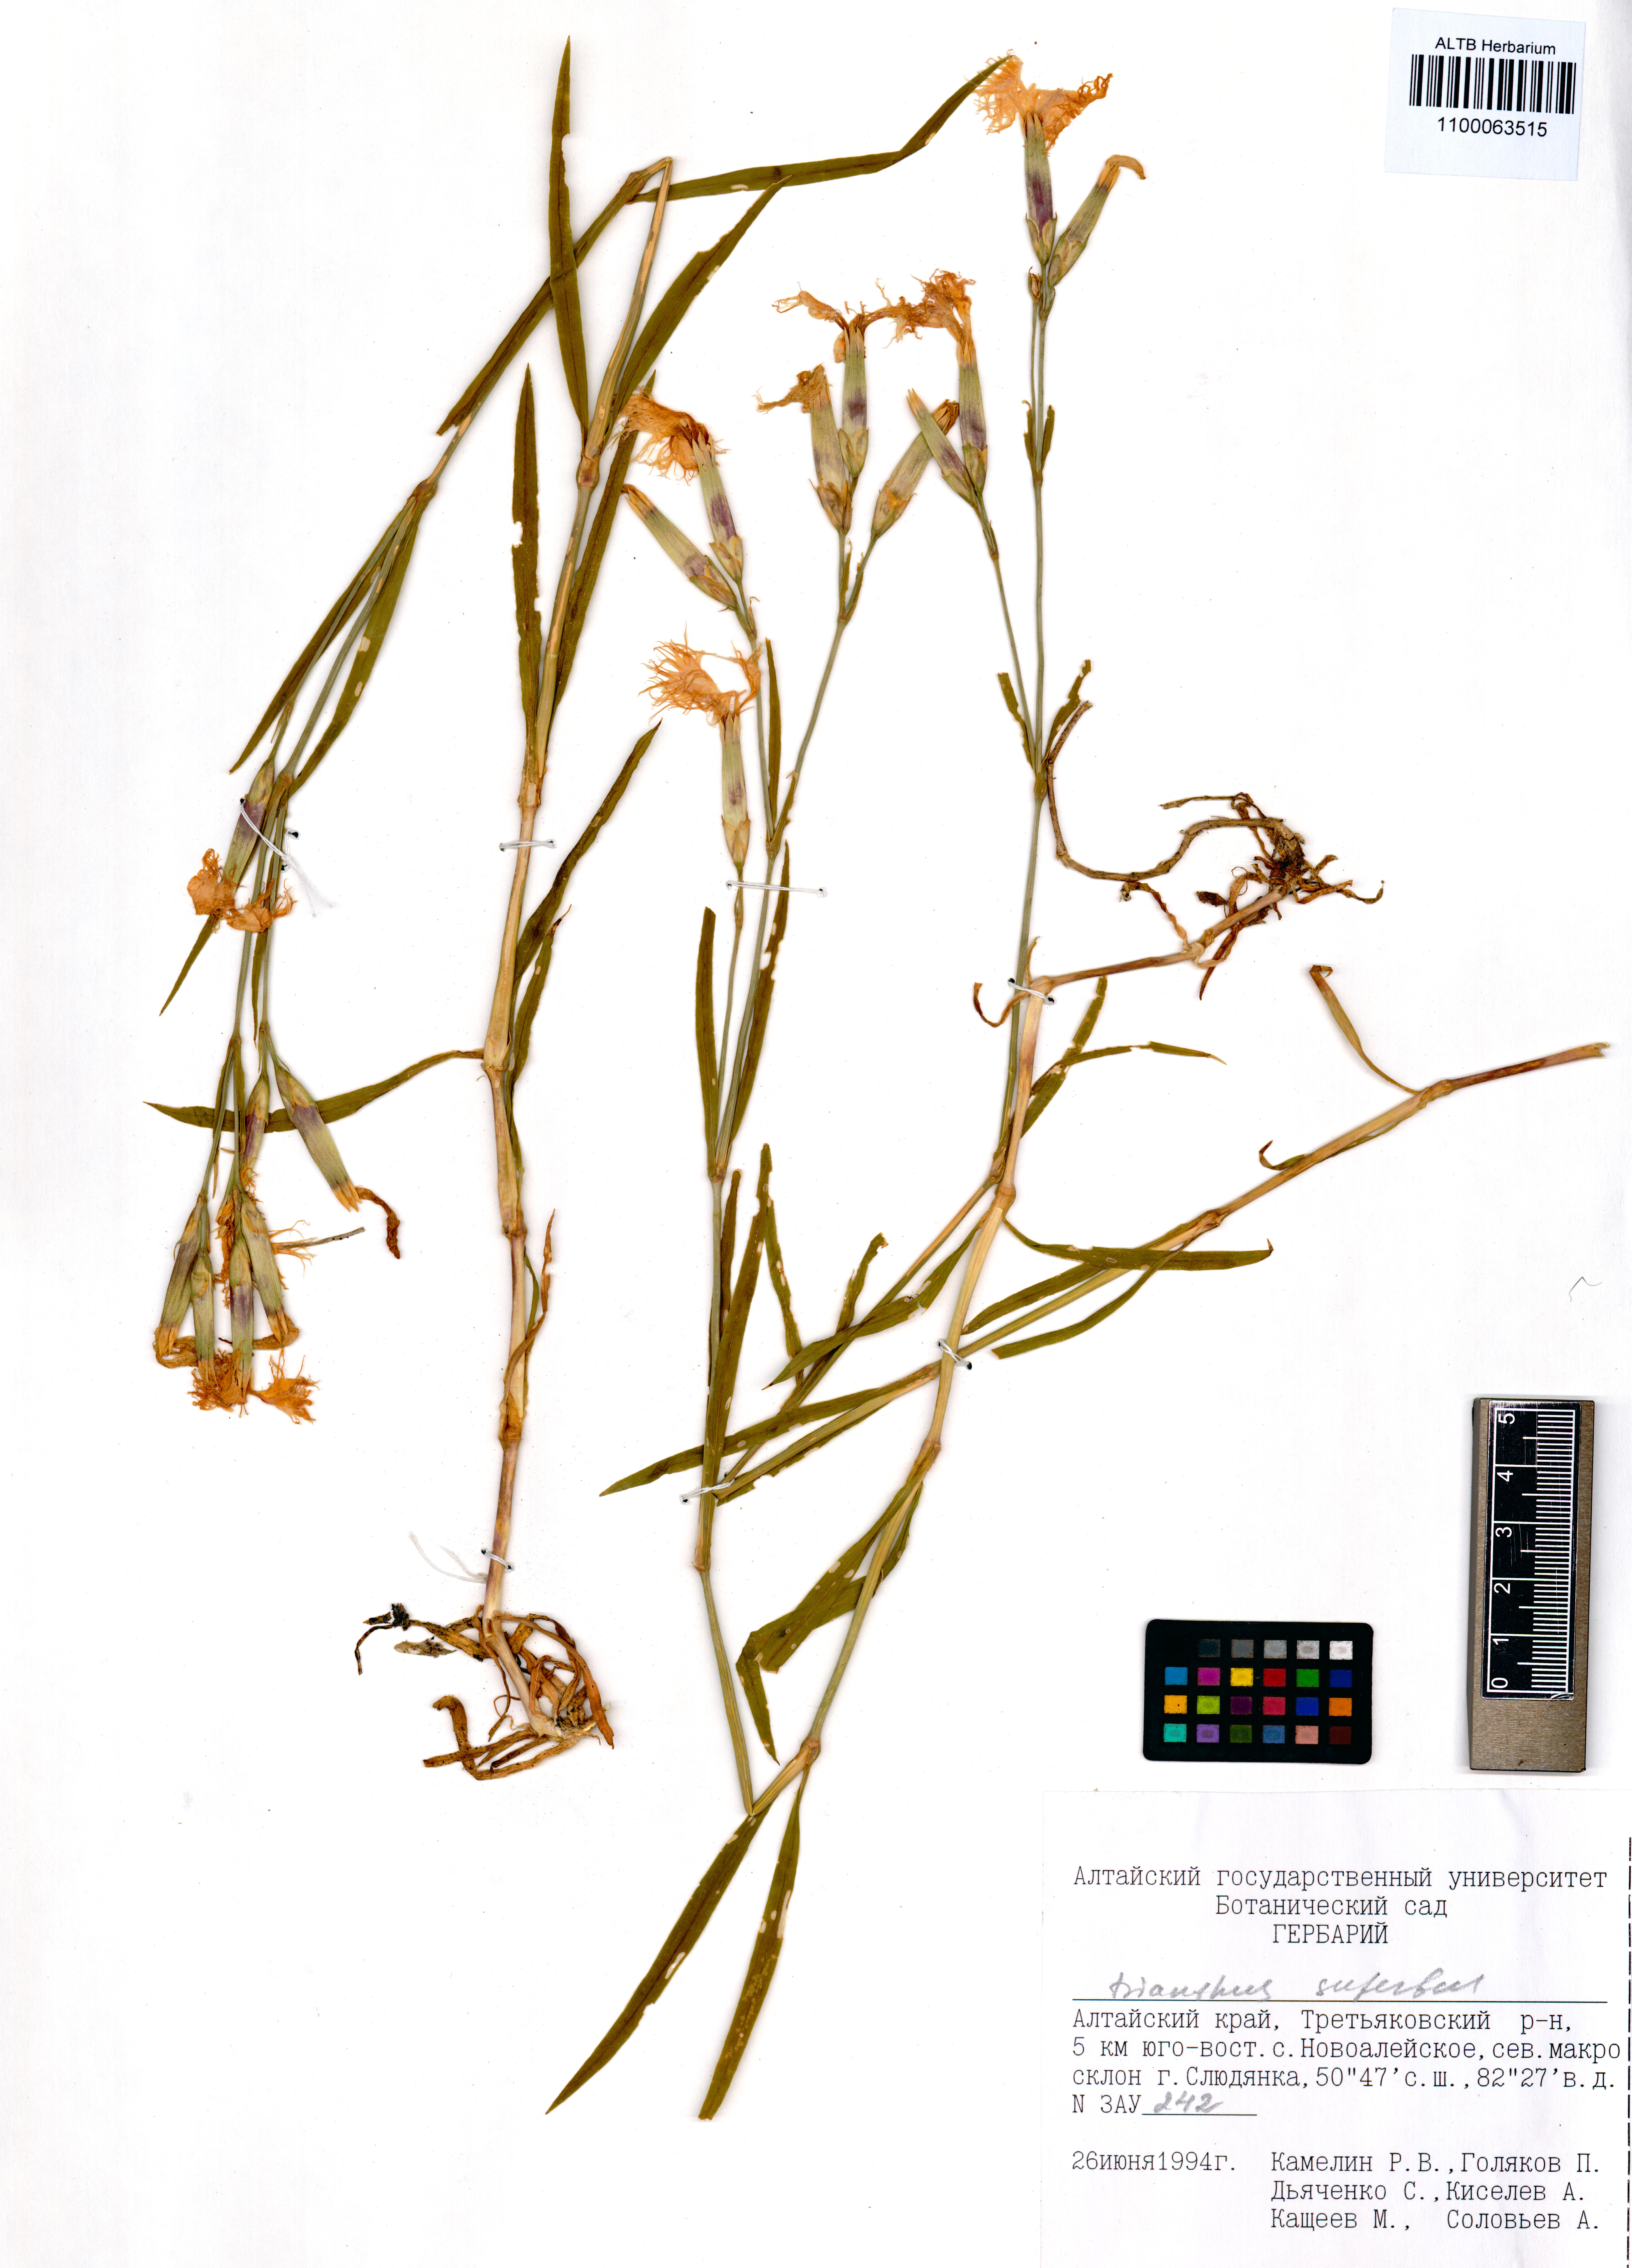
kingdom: Plantae
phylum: Tracheophyta
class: Magnoliopsida
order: Caryophyllales
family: Caryophyllaceae
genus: Dianthus
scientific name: Dianthus superbus
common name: Fringed pink
